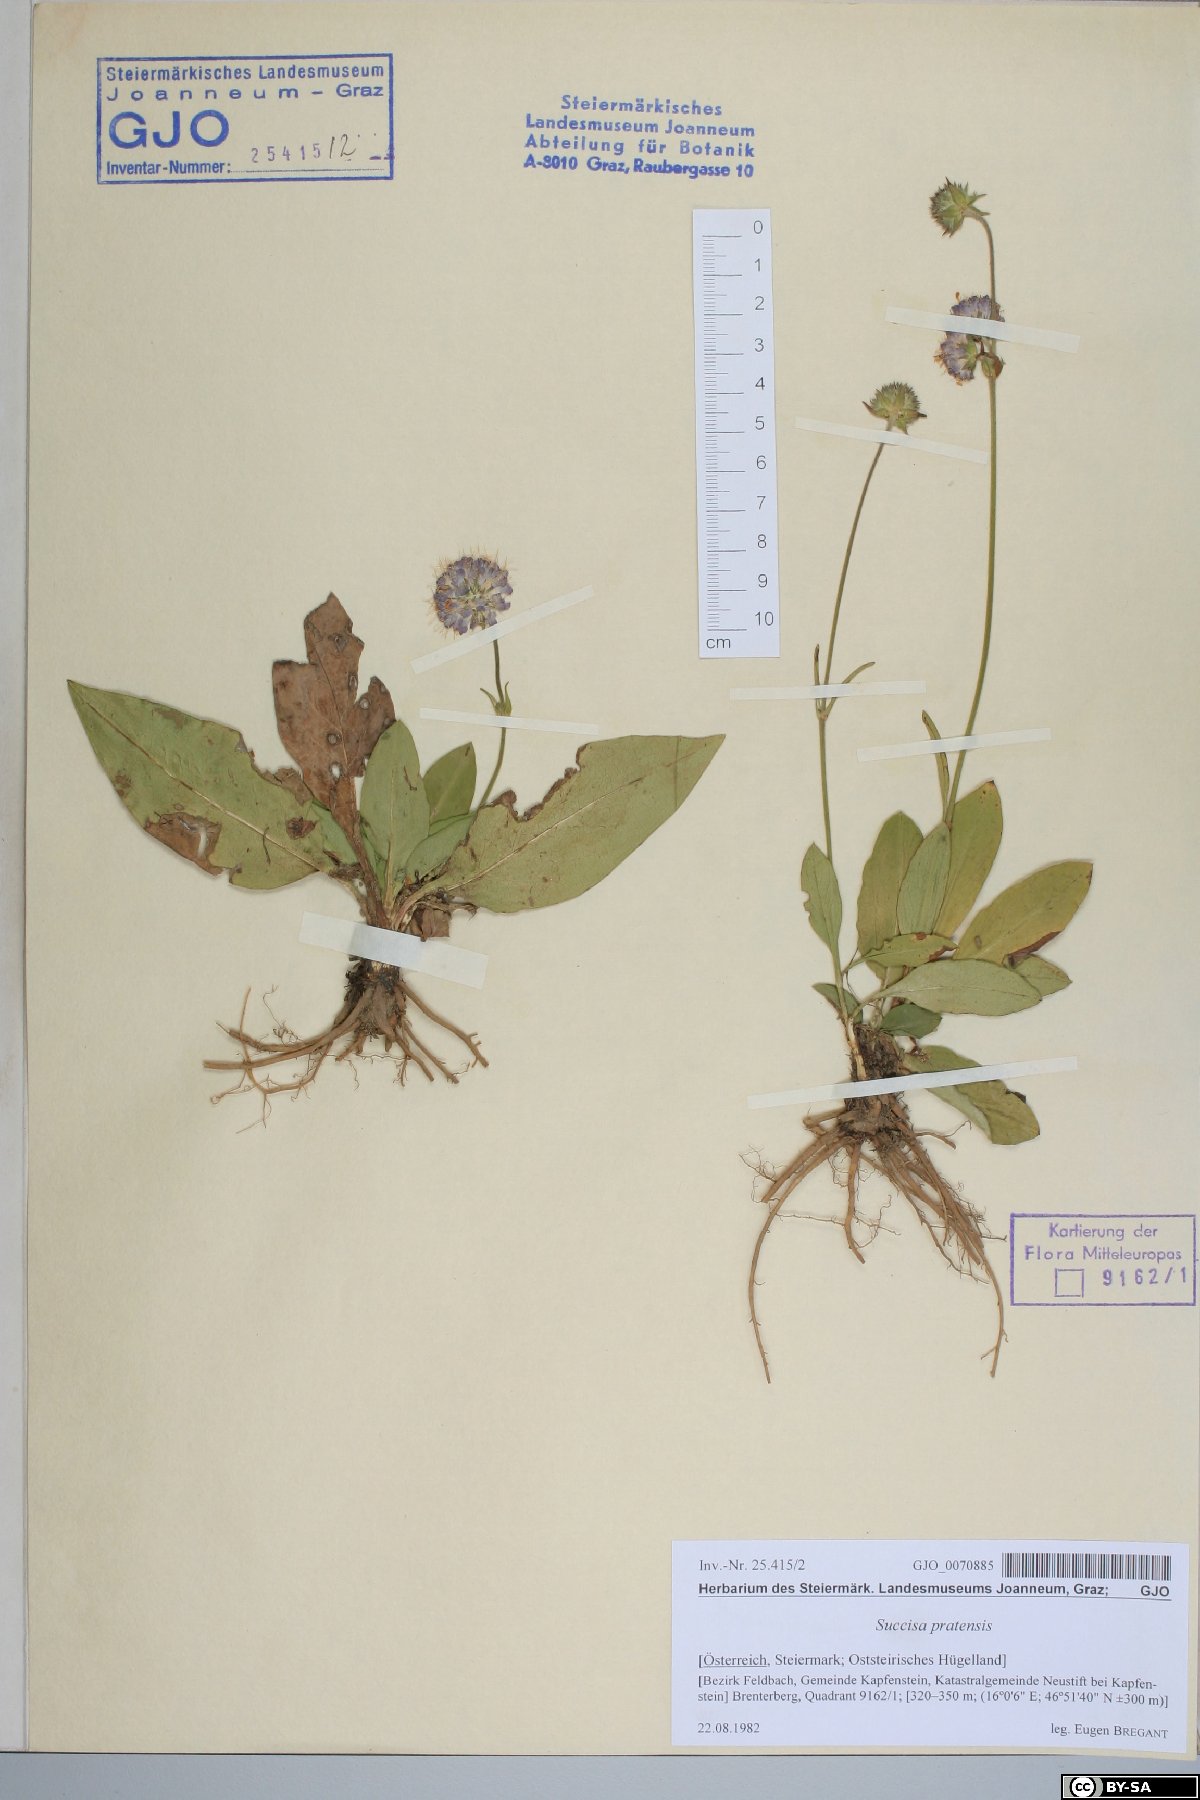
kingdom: Plantae
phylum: Tracheophyta
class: Magnoliopsida
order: Dipsacales
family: Caprifoliaceae
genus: Succisa
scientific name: Succisa pratensis
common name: Devil's-bit
